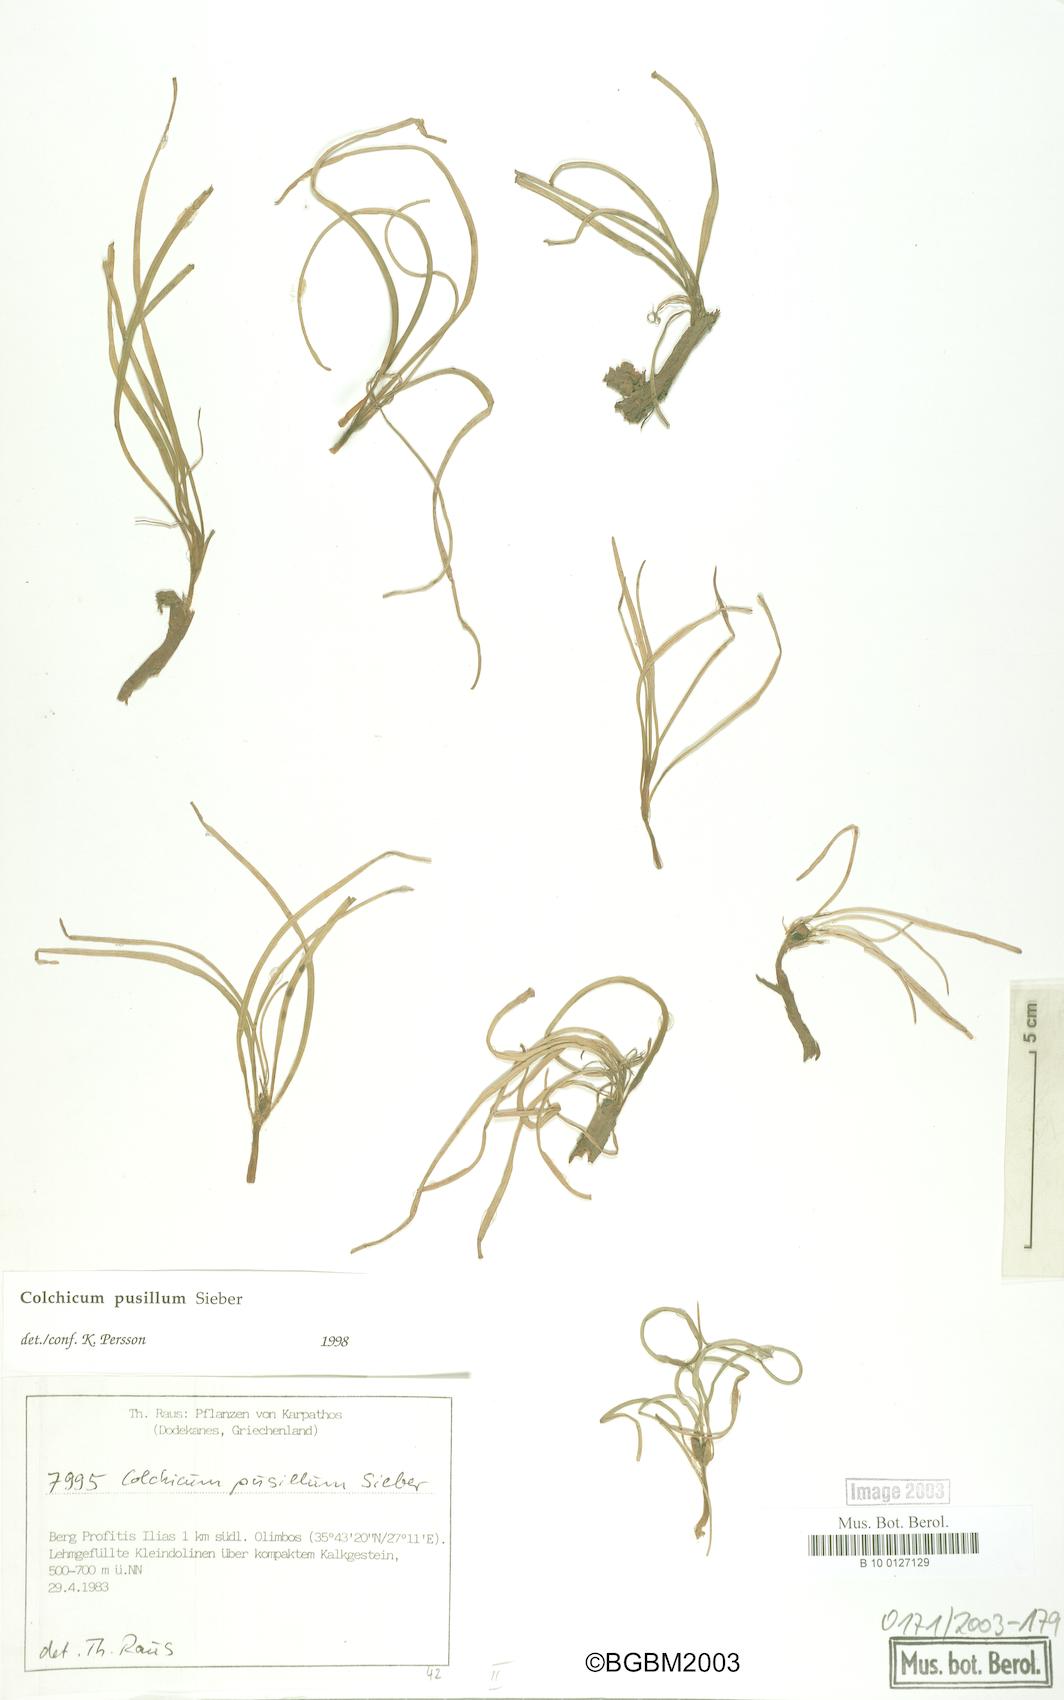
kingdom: Plantae
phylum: Tracheophyta
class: Liliopsida
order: Liliales
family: Colchicaceae
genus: Colchicum
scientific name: Colchicum pusillum
